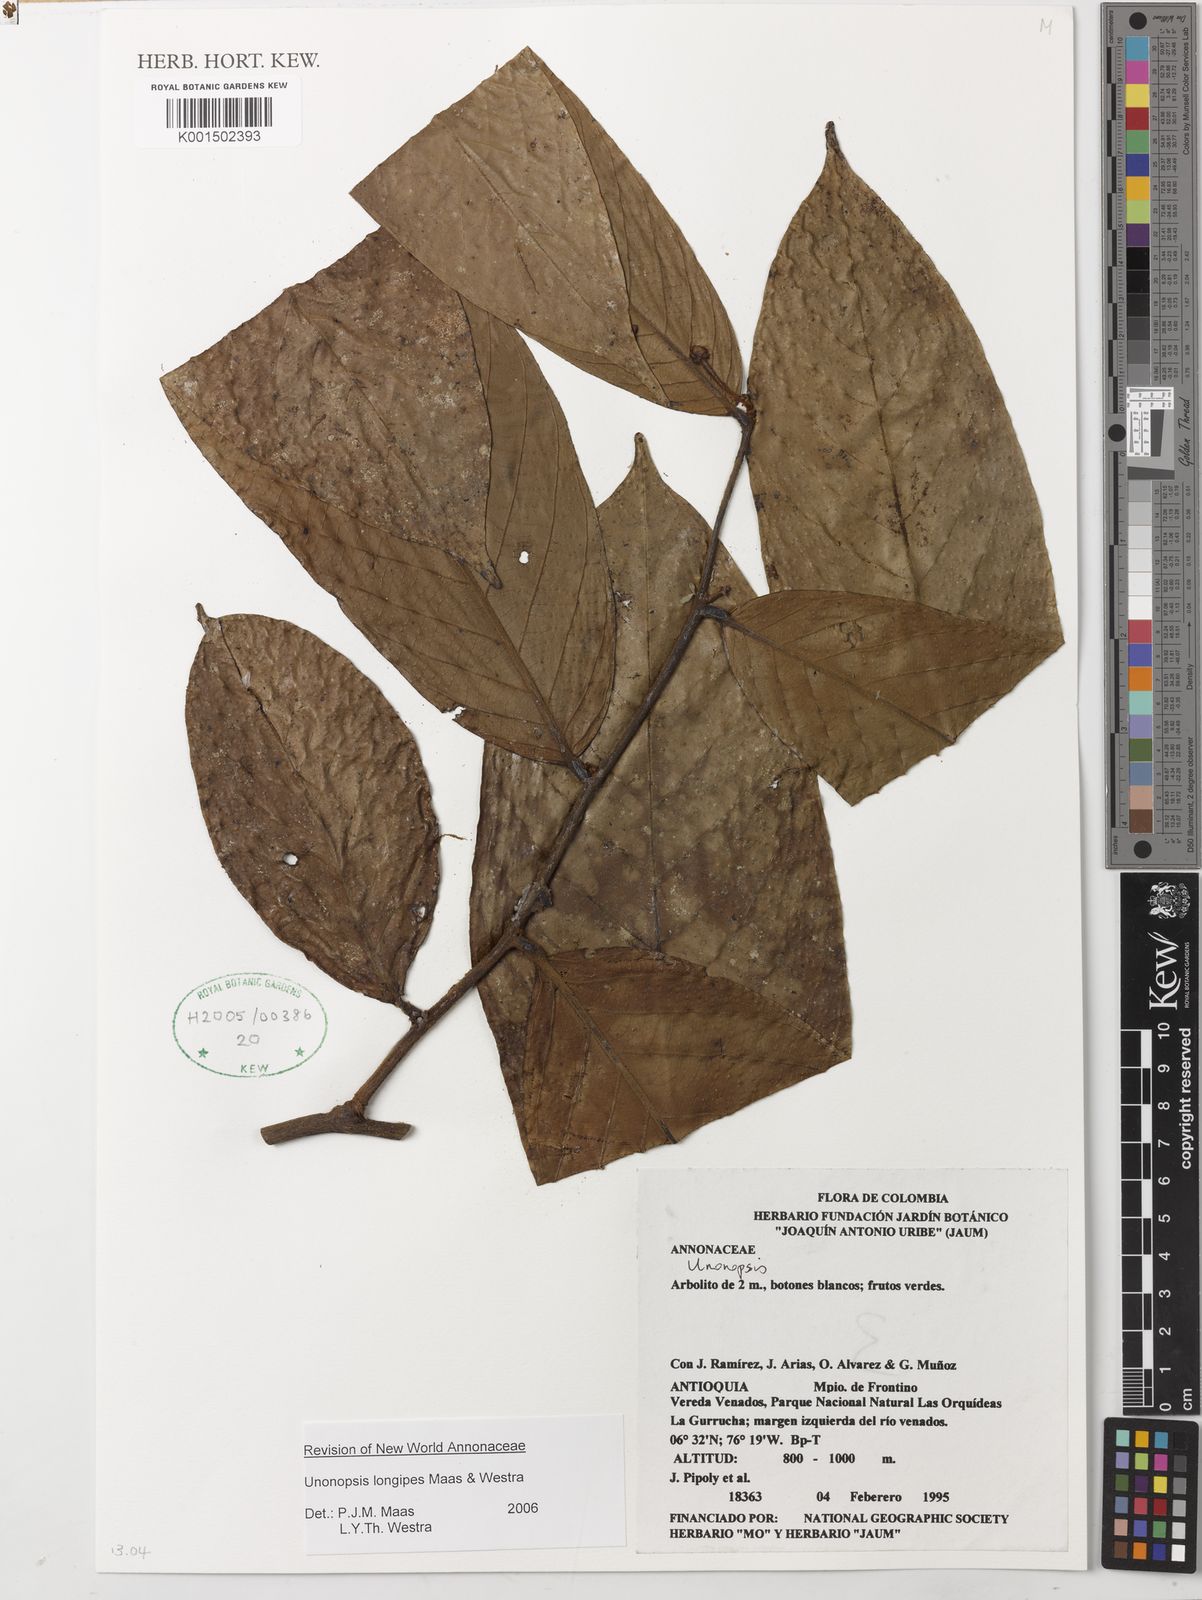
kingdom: Plantae
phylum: Tracheophyta
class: Magnoliopsida
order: Magnoliales
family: Annonaceae
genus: Unonopsis
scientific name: Unonopsis longipes
